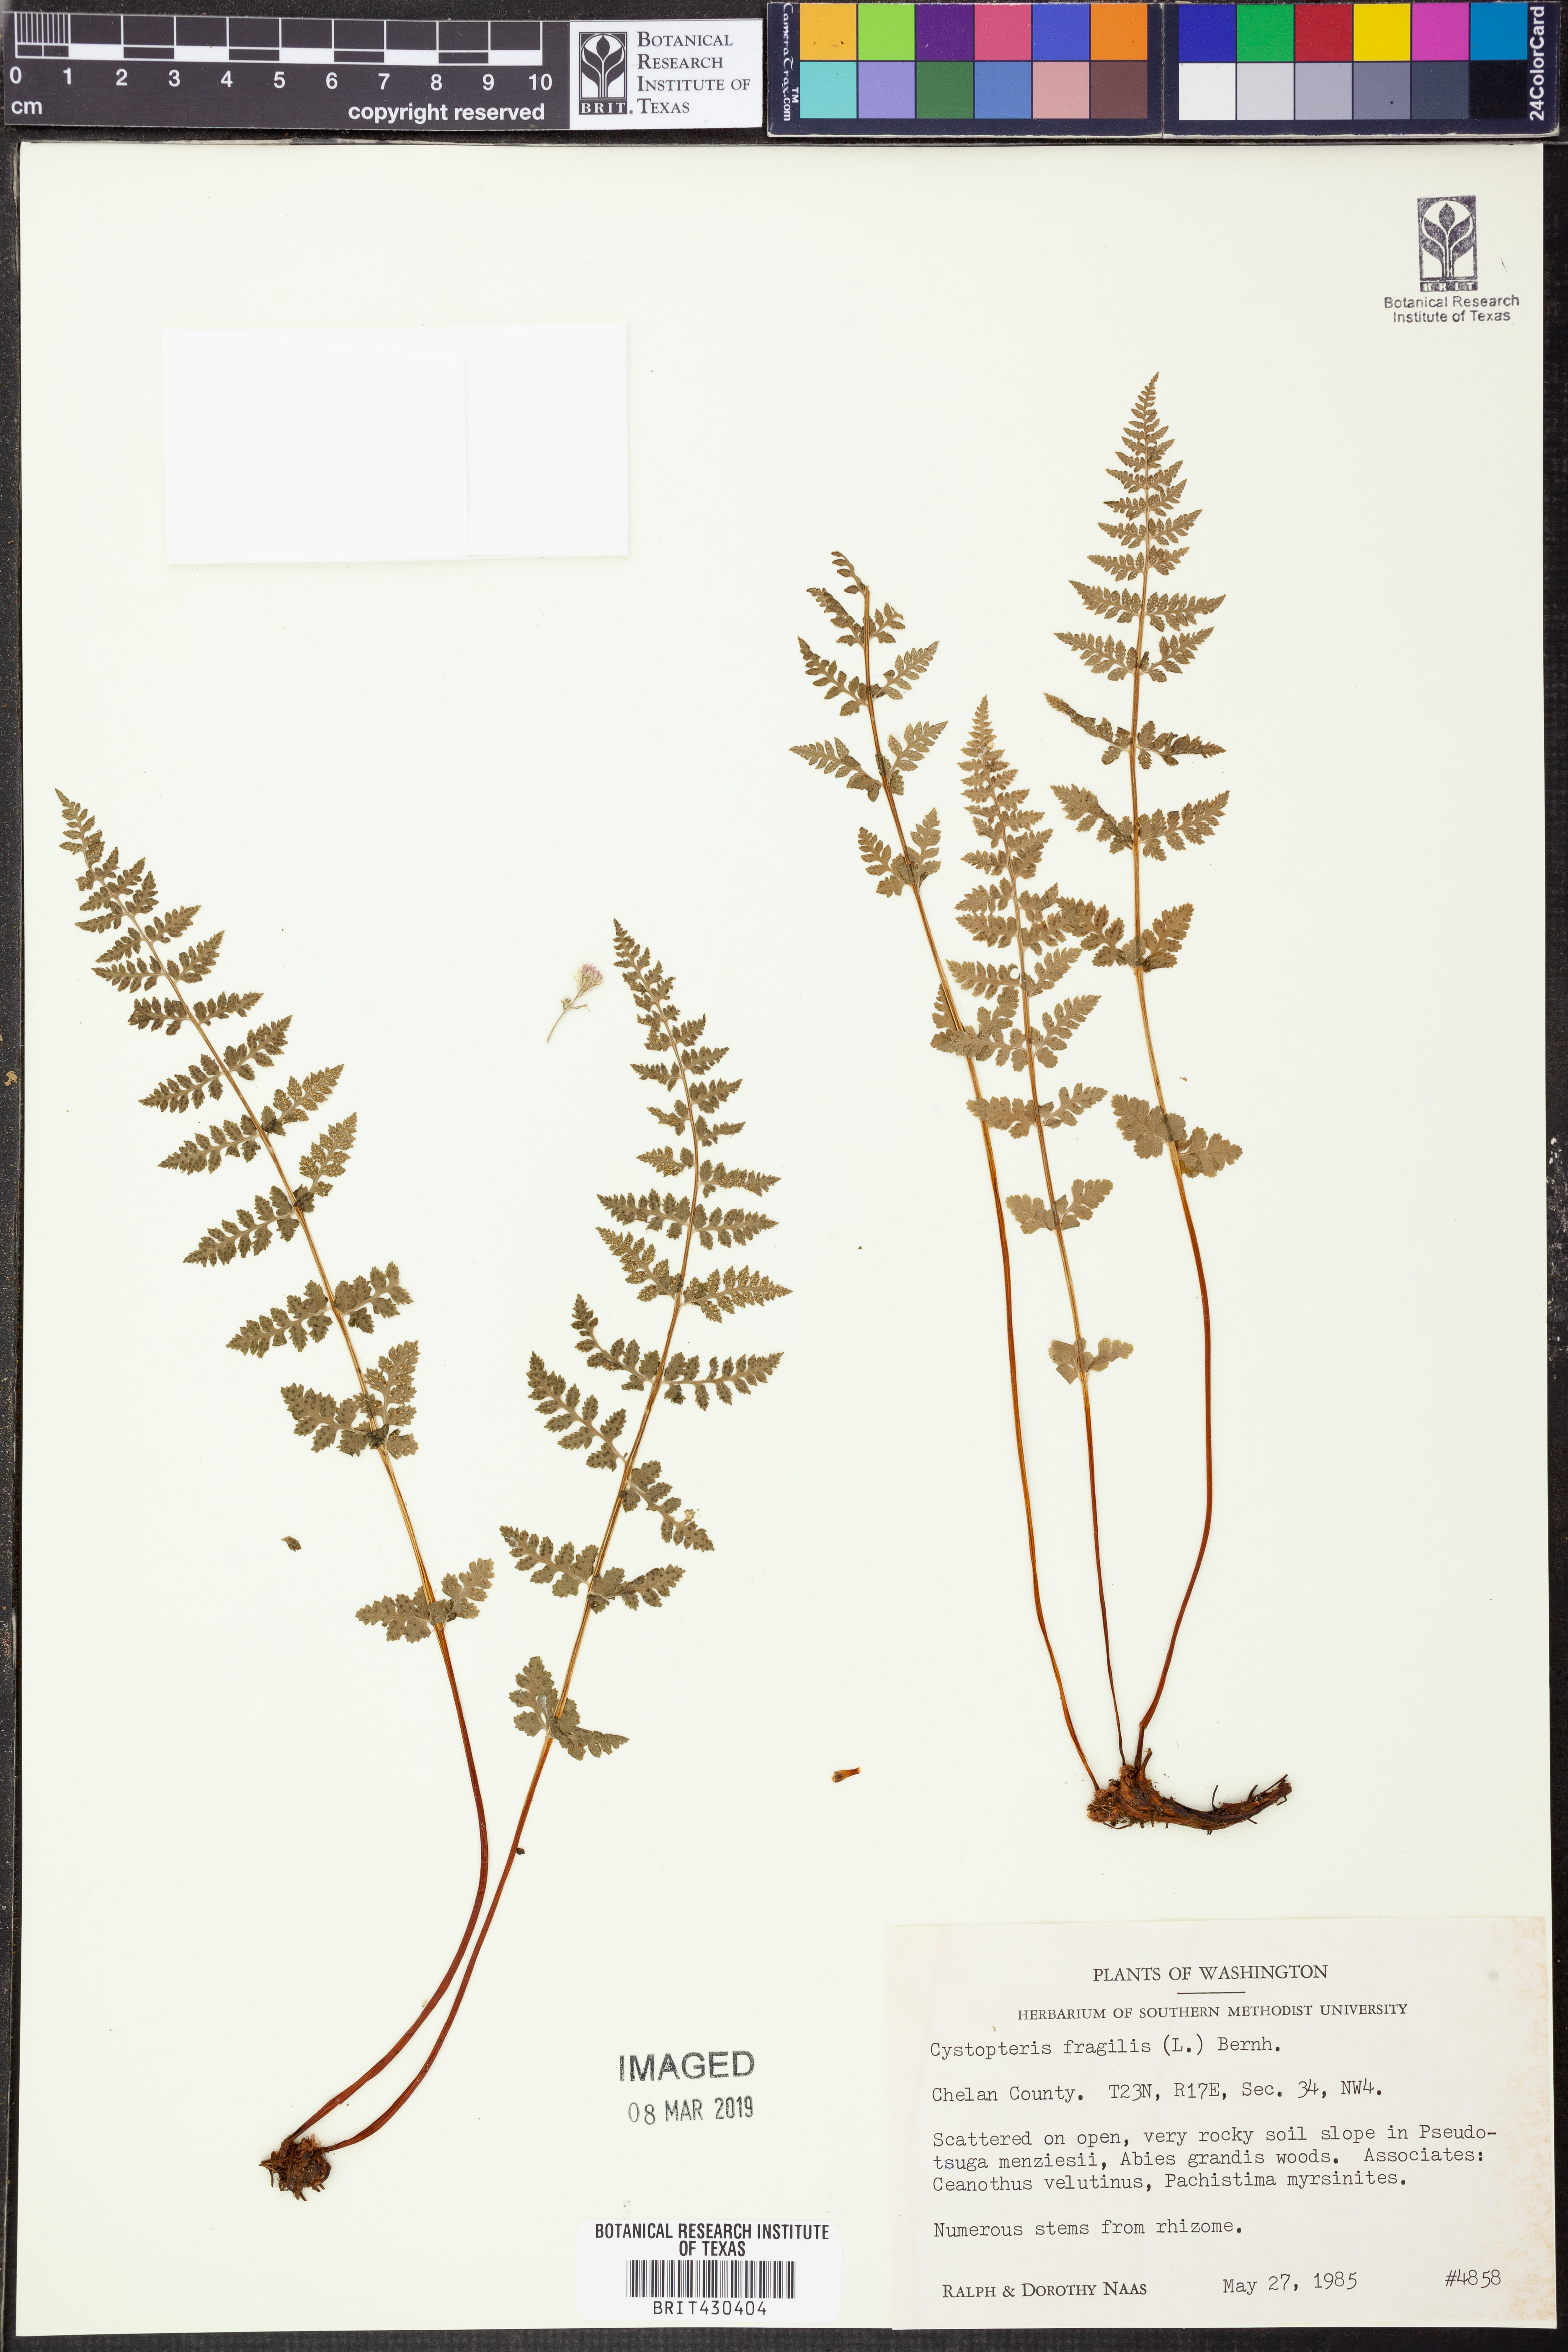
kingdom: Plantae
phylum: Tracheophyta
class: Polypodiopsida
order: Polypodiales
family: Cystopteridaceae
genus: Cystopteris
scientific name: Cystopteris fragilis
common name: Brittle bladder fern
